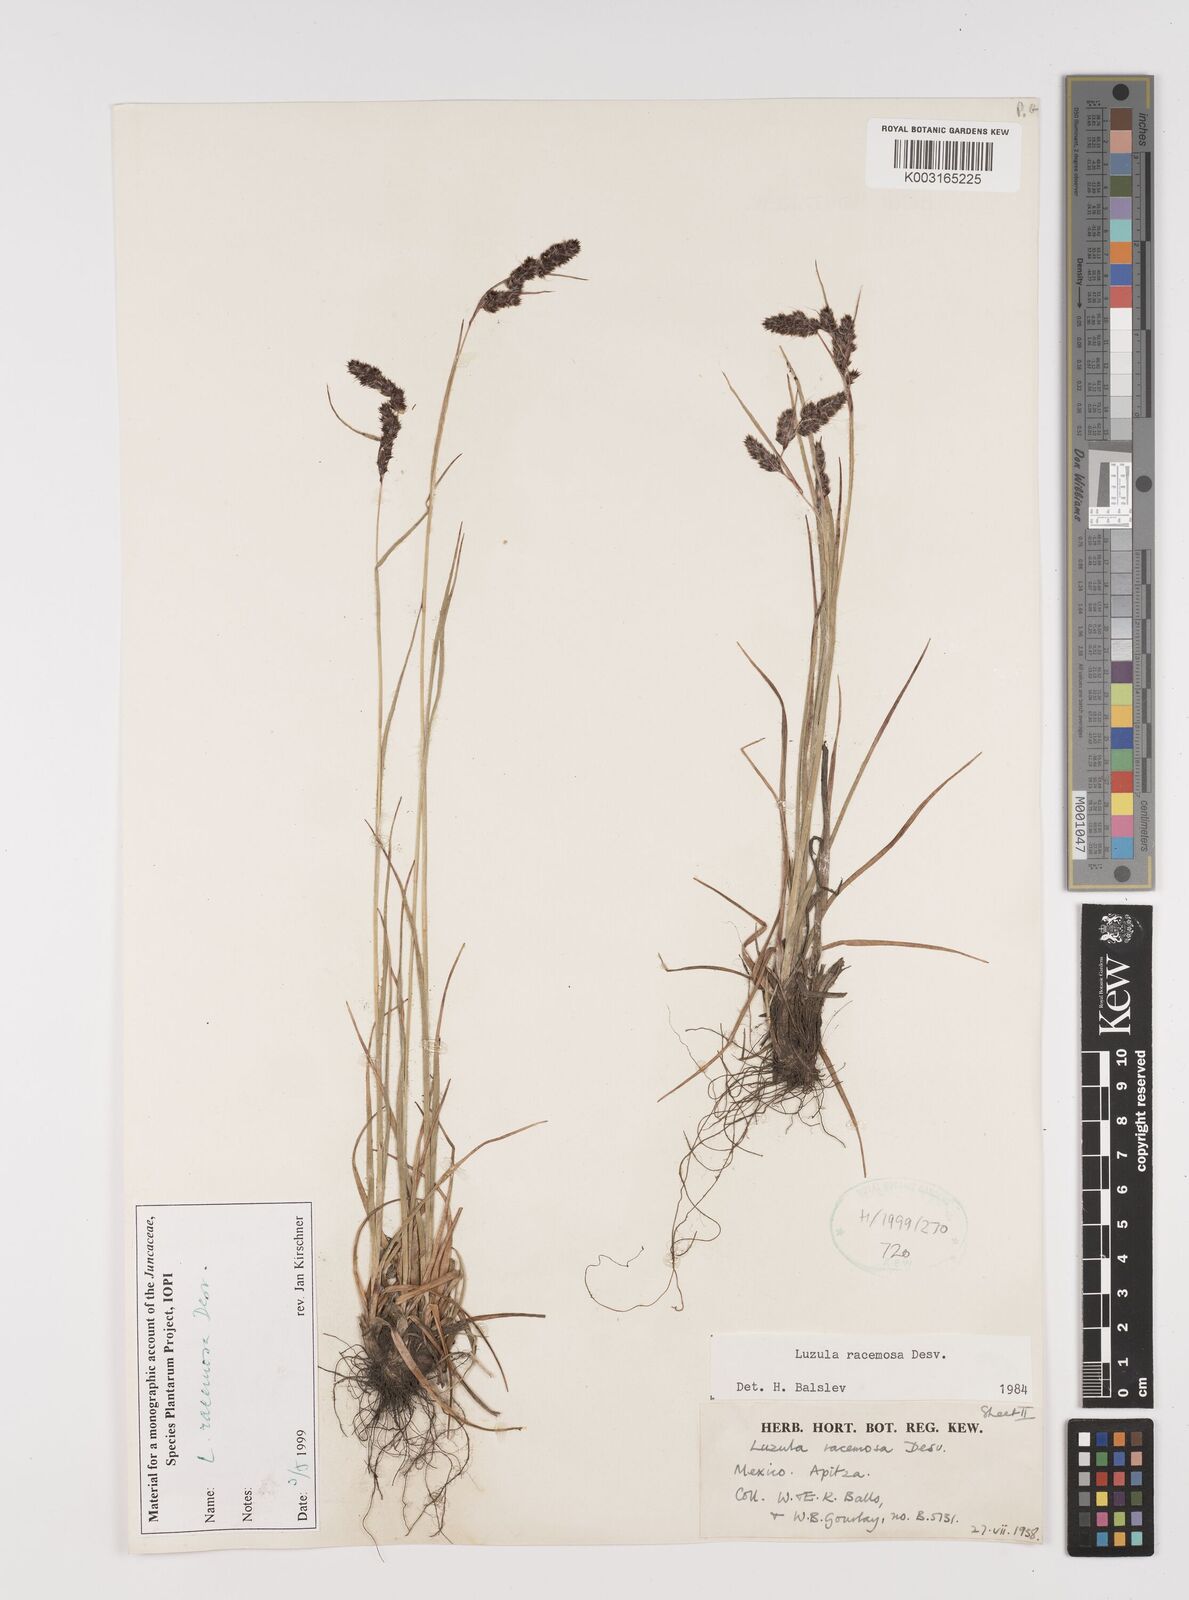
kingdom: Plantae
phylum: Tracheophyta
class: Liliopsida
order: Poales
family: Juncaceae
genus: Luzula
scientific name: Luzula racemosa
